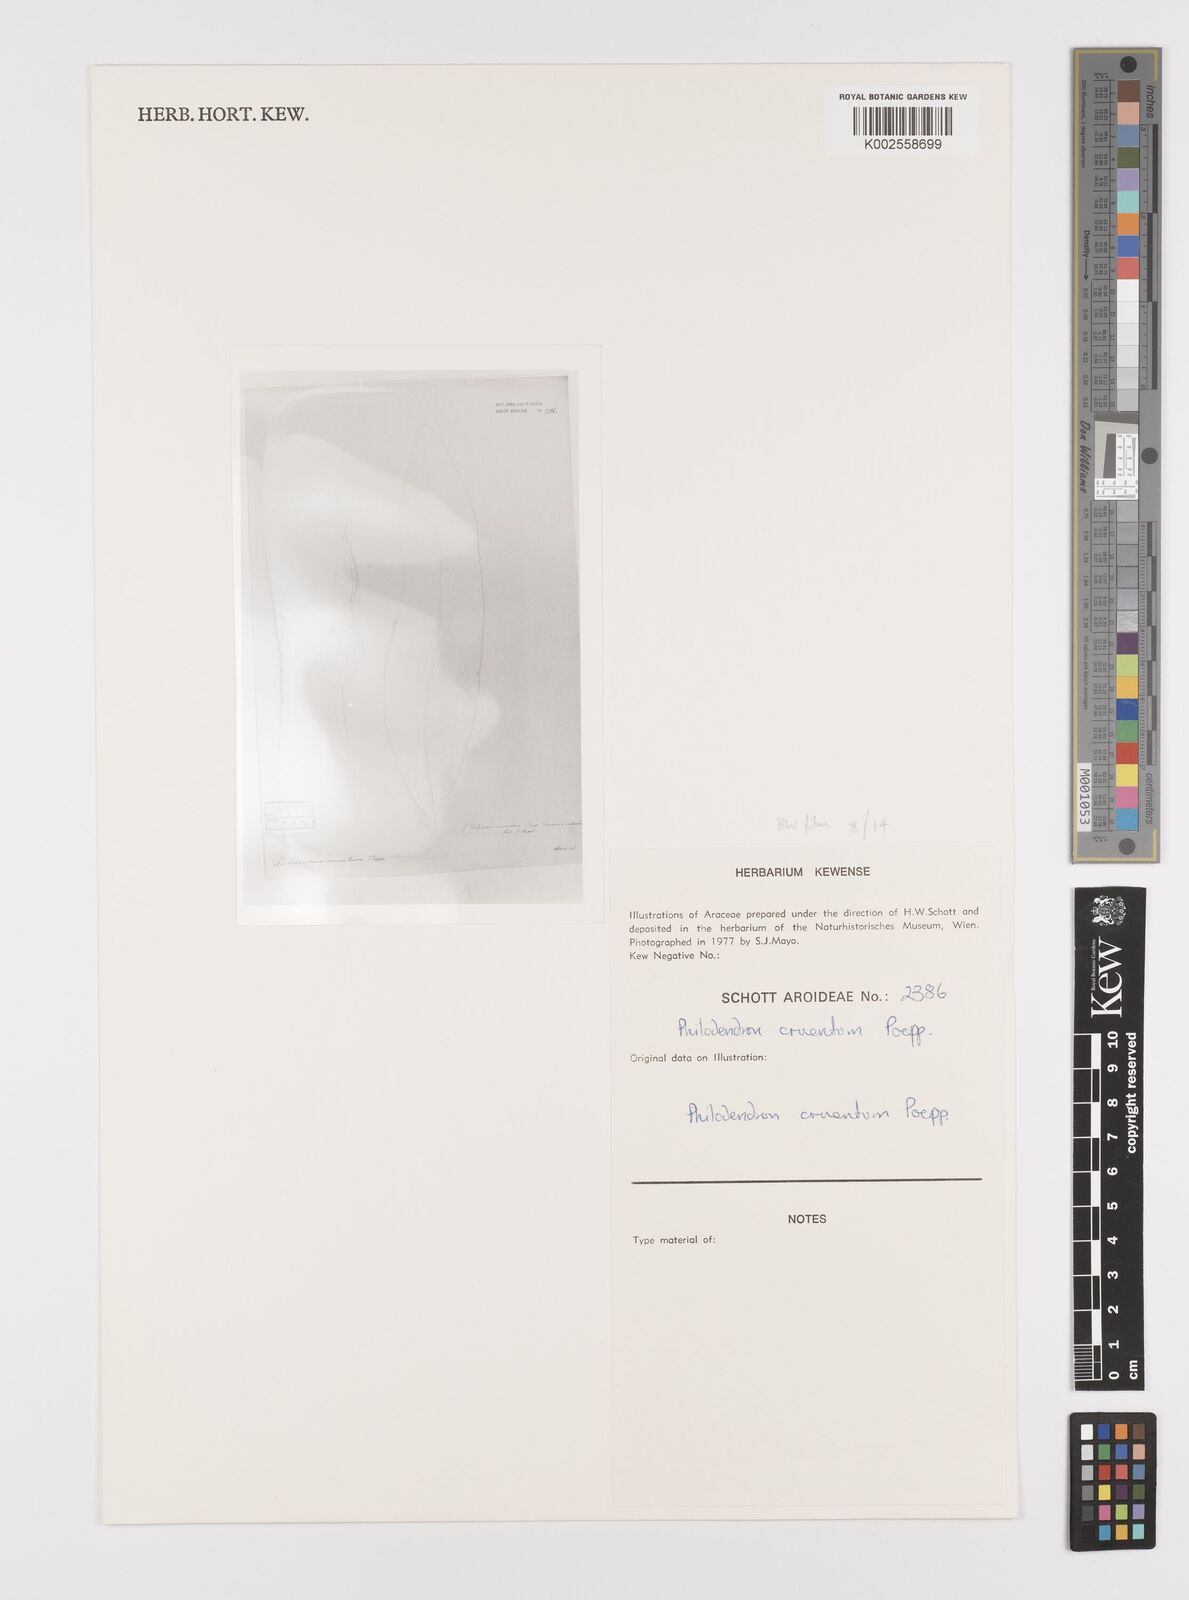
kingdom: Plantae
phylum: Tracheophyta
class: Liliopsida
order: Alismatales
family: Araceae
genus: Philodendron
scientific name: Philodendron cruentum
